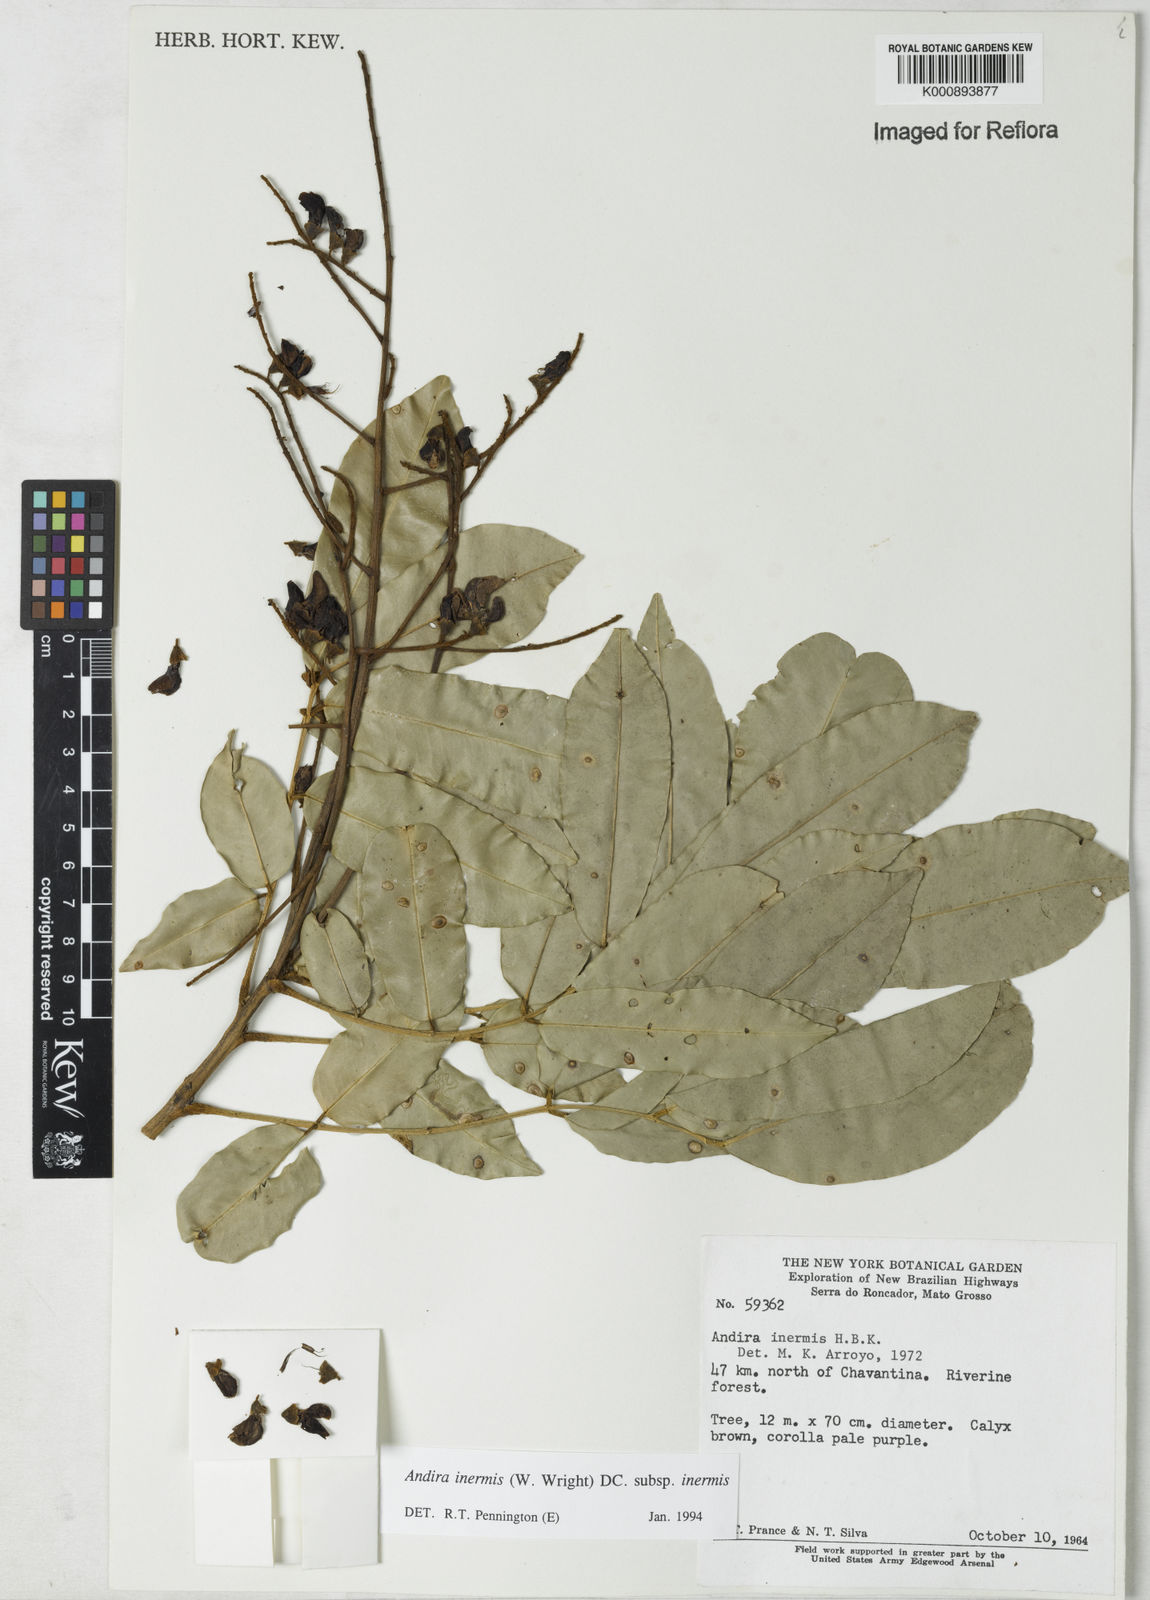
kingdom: Plantae
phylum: Tracheophyta
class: Magnoliopsida
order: Fabales
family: Fabaceae
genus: Andira
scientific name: Andira inermis
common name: Angelin
